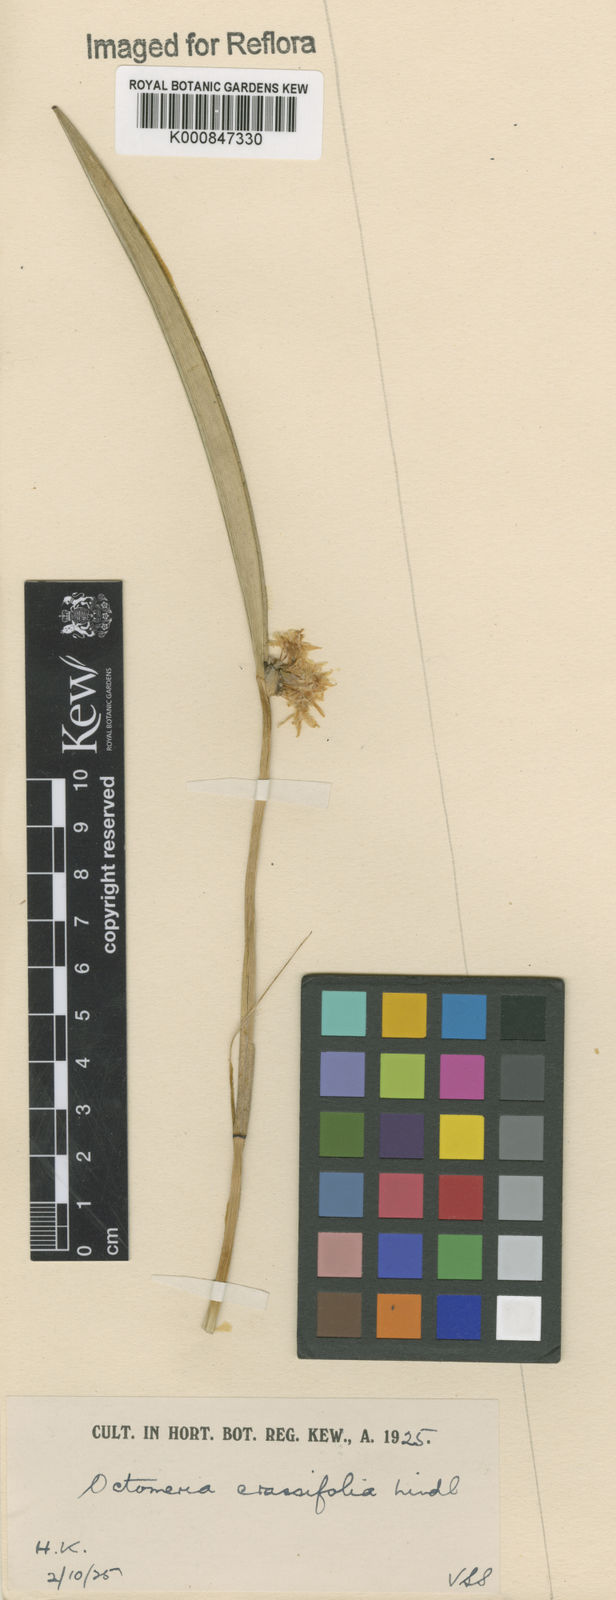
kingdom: Plantae
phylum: Tracheophyta
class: Liliopsida
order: Asparagales
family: Orchidaceae
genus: Octomeria
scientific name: Octomeria crassifolia
